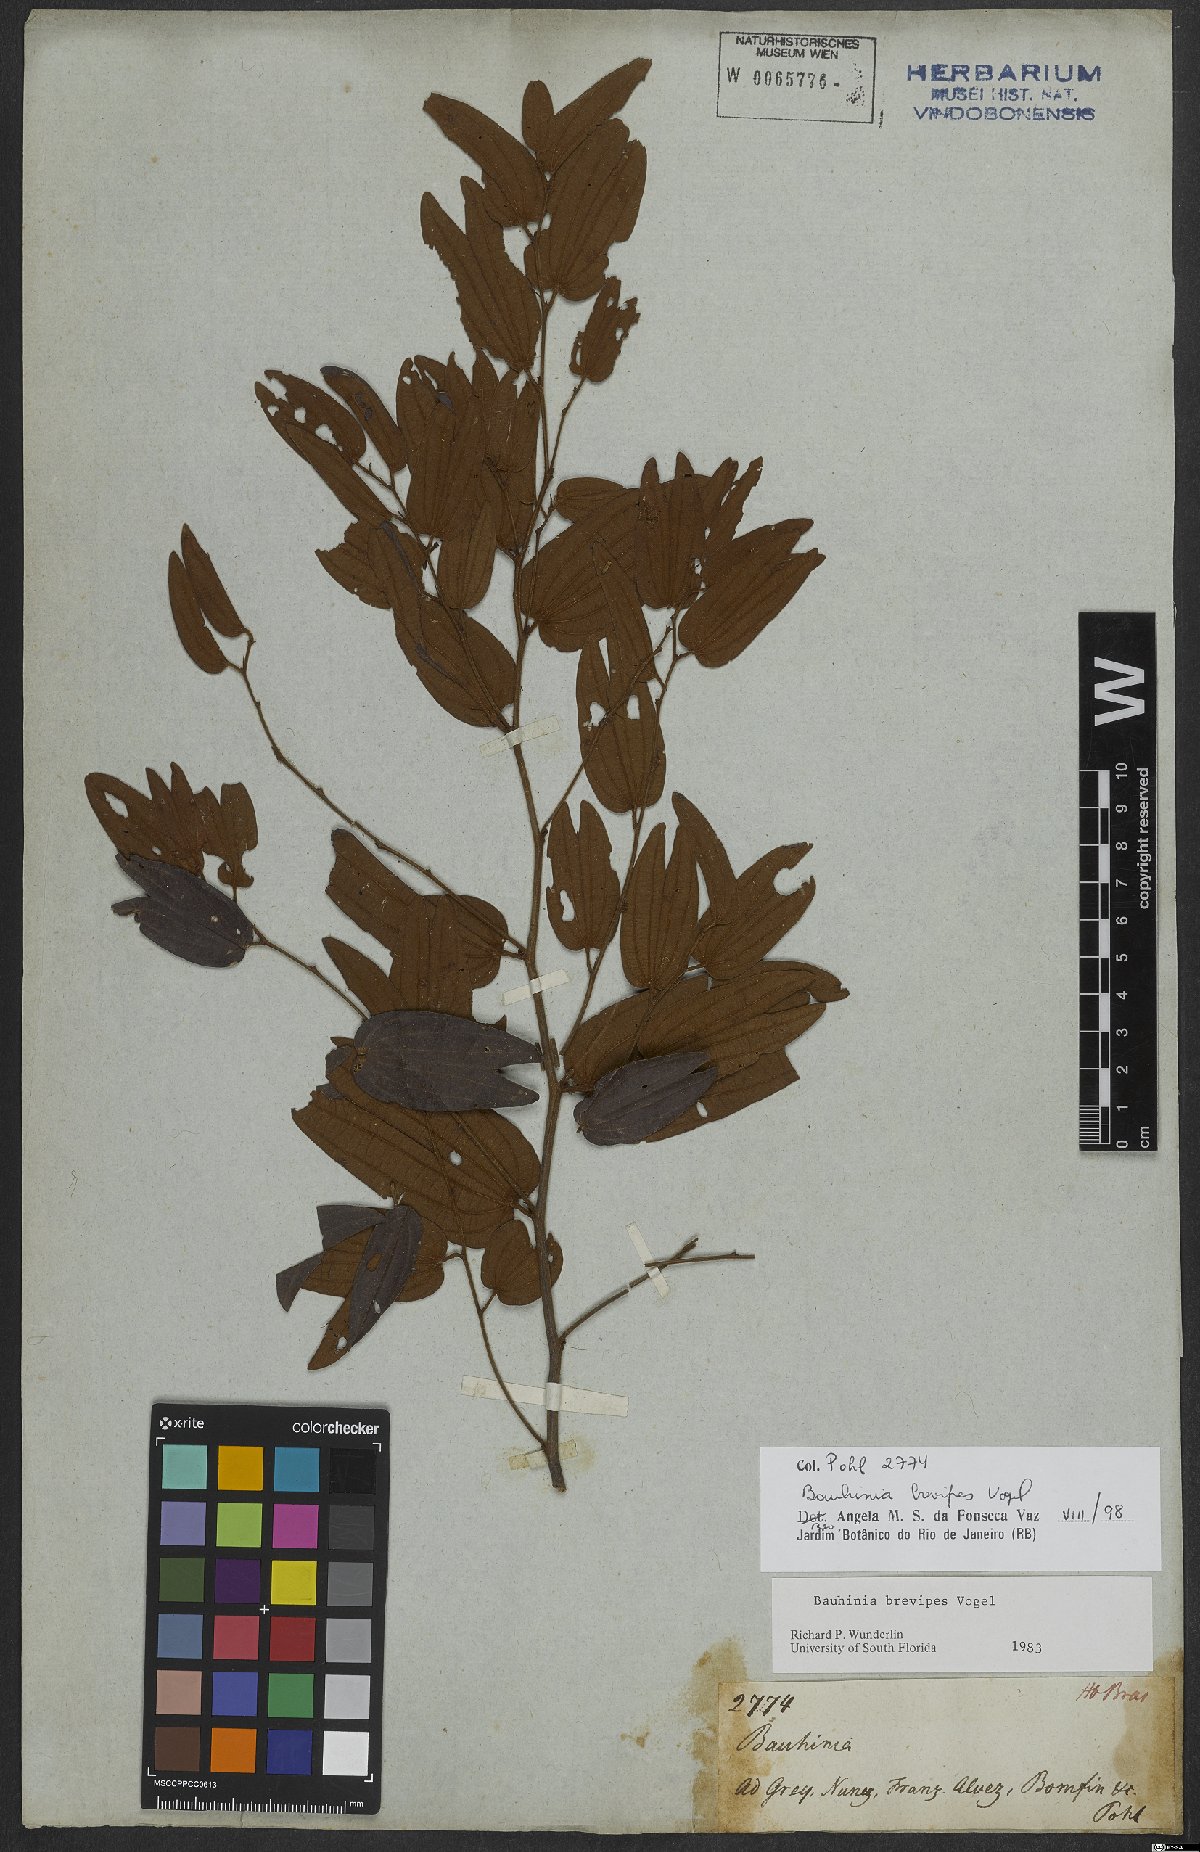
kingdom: Plantae
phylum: Tracheophyta
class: Magnoliopsida
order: Fabales
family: Fabaceae
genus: Bauhinia
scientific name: Bauhinia brevipes
